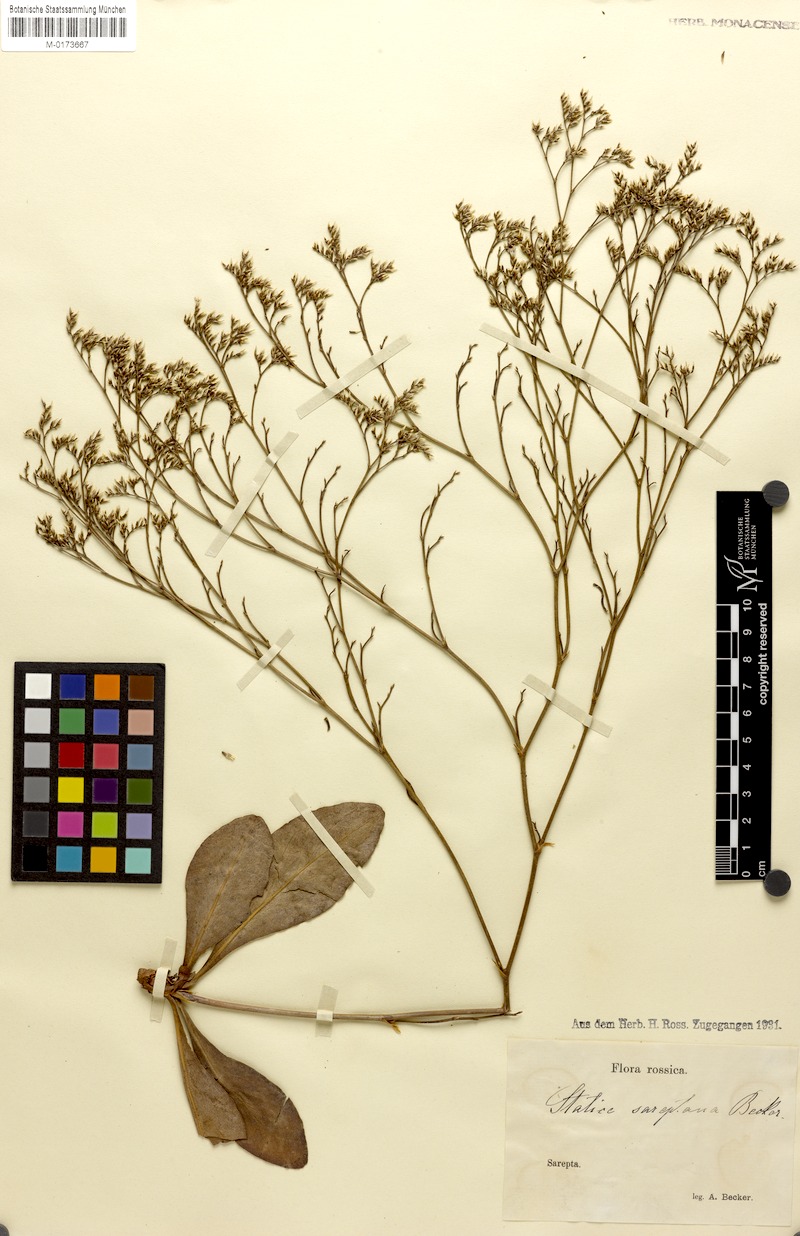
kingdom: Plantae
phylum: Tracheophyta
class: Magnoliopsida
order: Caryophyllales
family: Plumbaginaceae
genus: Limonium
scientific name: Limonium sareptanum
